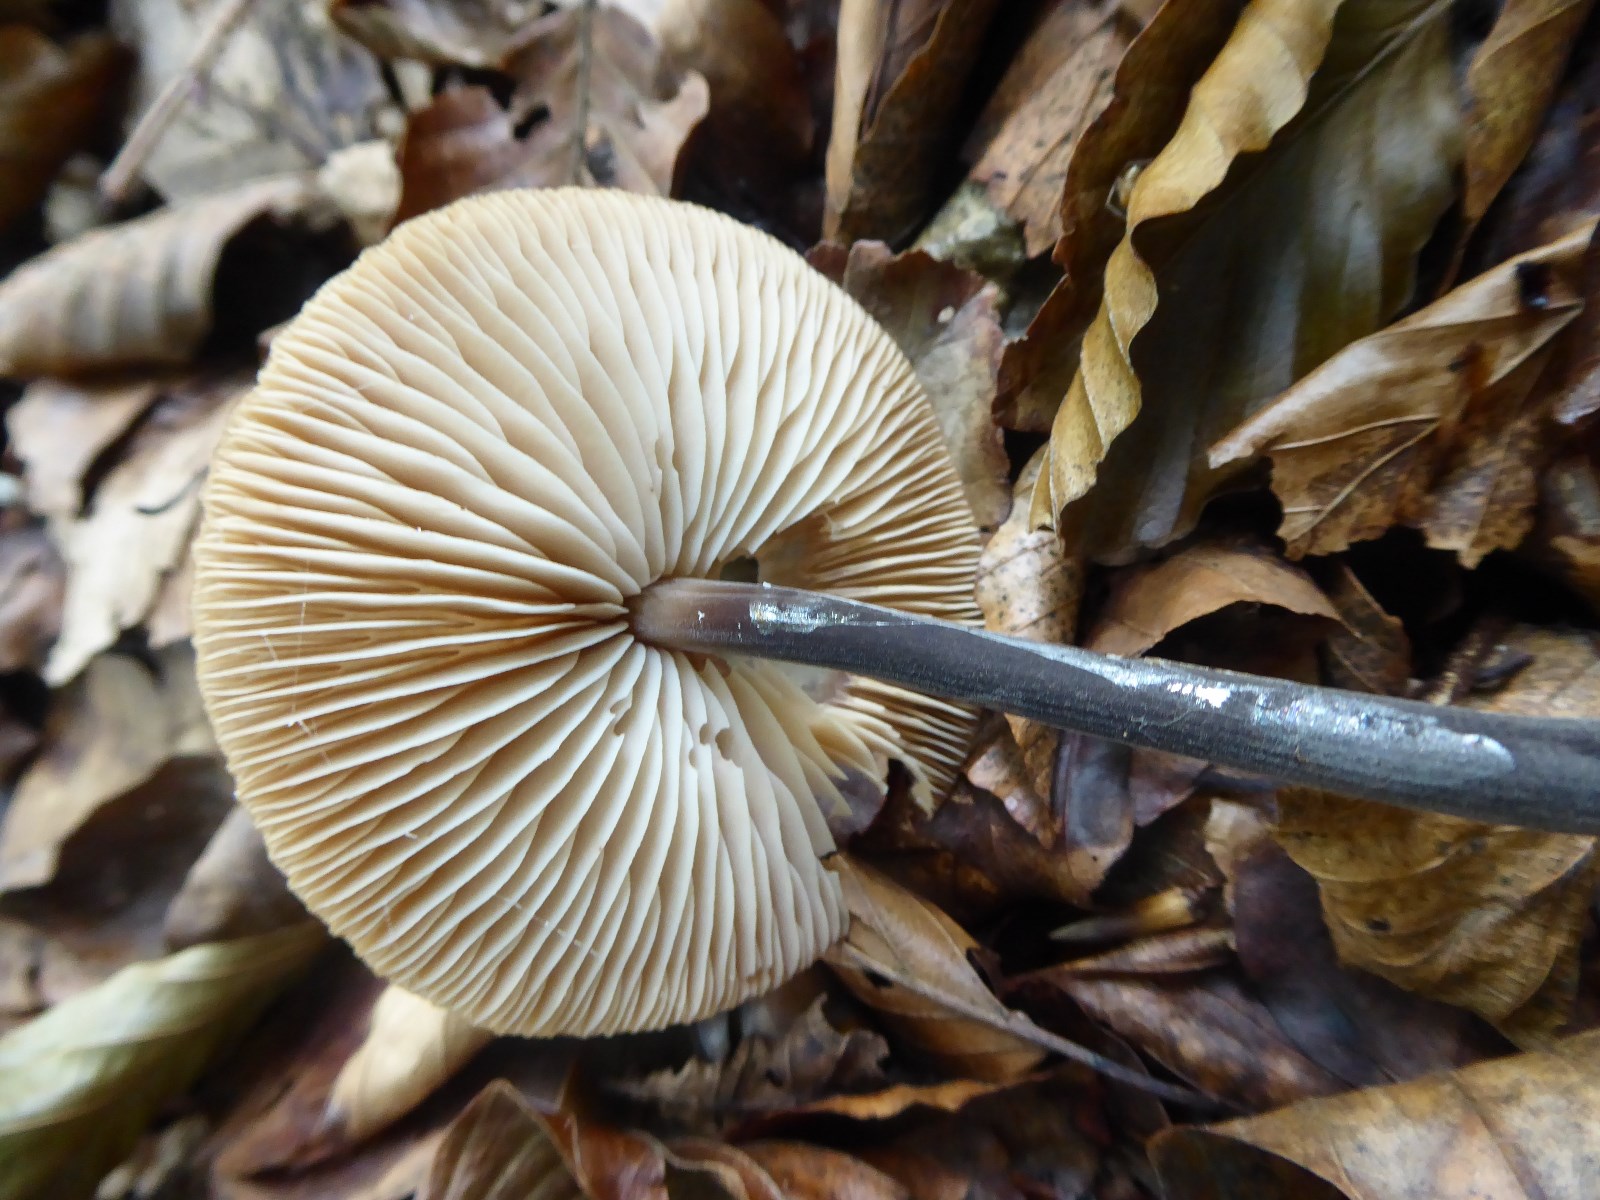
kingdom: Fungi
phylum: Basidiomycota
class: Agaricomycetes
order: Agaricales
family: Omphalotaceae
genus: Mycetinis
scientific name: Mycetinis alliaceus
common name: stor løghat
